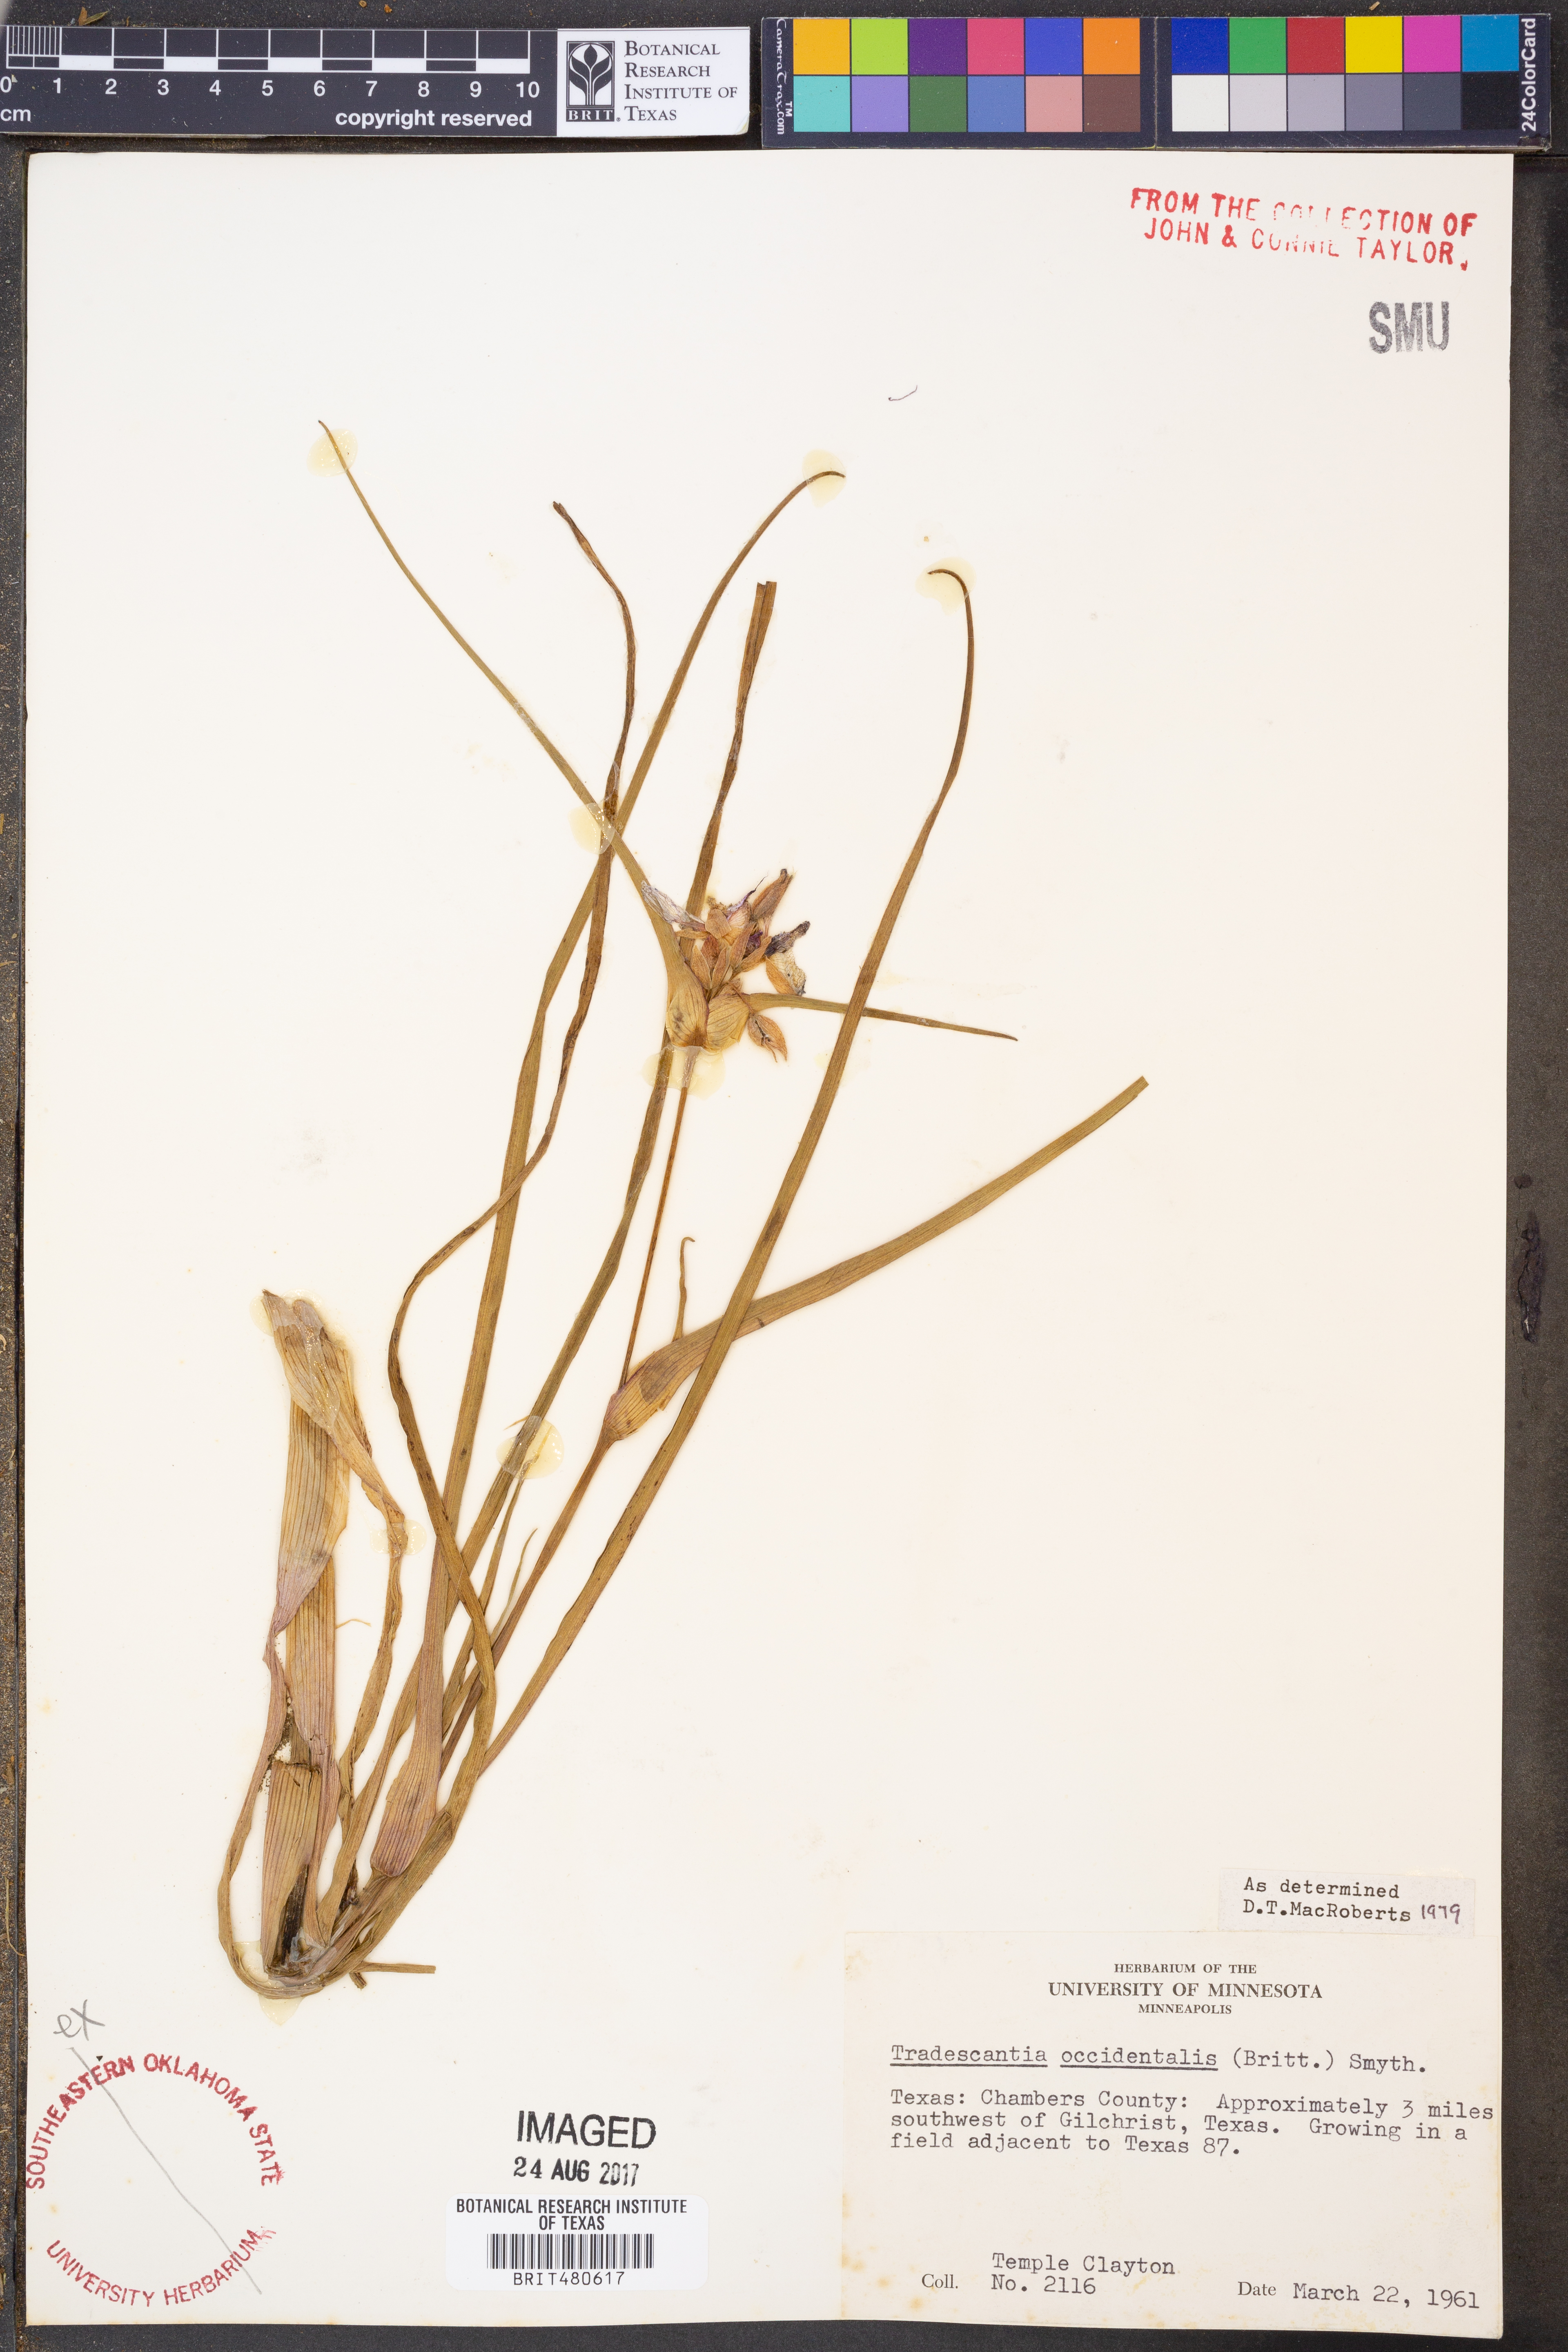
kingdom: Plantae
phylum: Tracheophyta
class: Liliopsida
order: Commelinales
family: Commelinaceae
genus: Tradescantia
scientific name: Tradescantia occidentalis
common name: Prairie spiderwort
